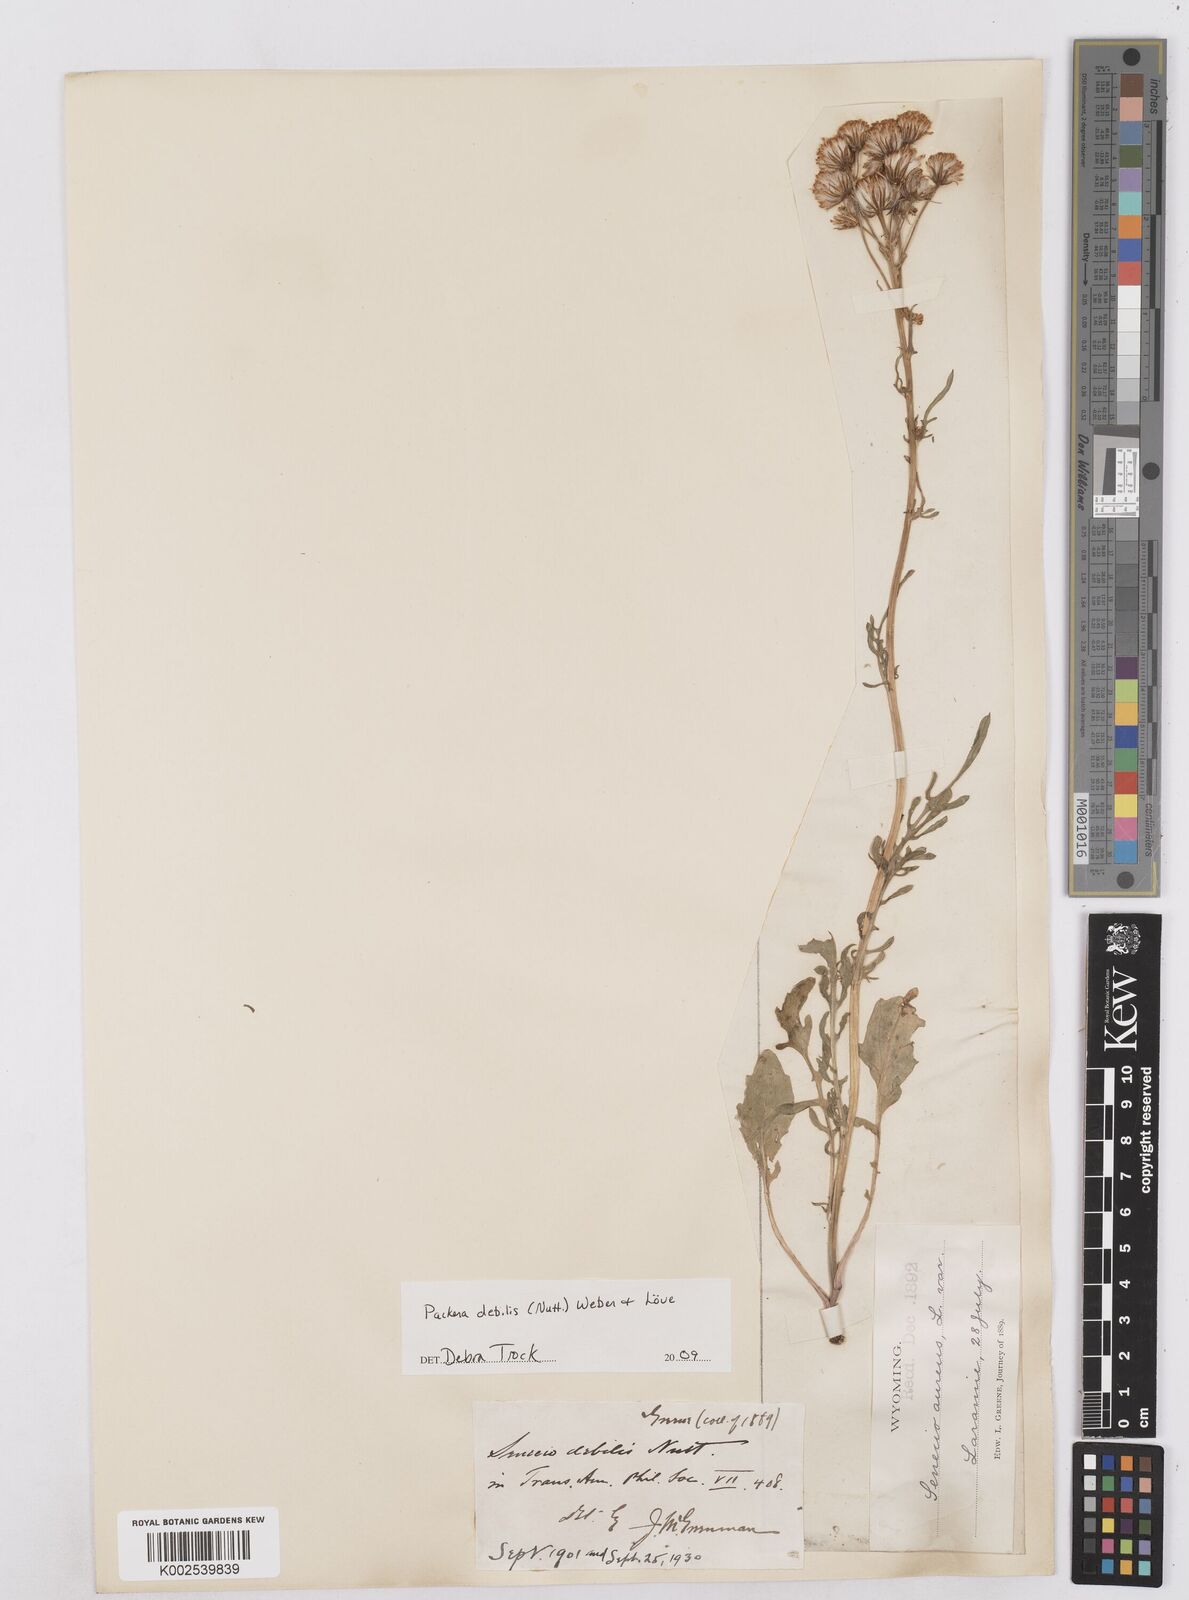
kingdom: Plantae
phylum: Tracheophyta
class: Magnoliopsida
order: Asterales
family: Asteraceae
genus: Packera
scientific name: Packera debilis
